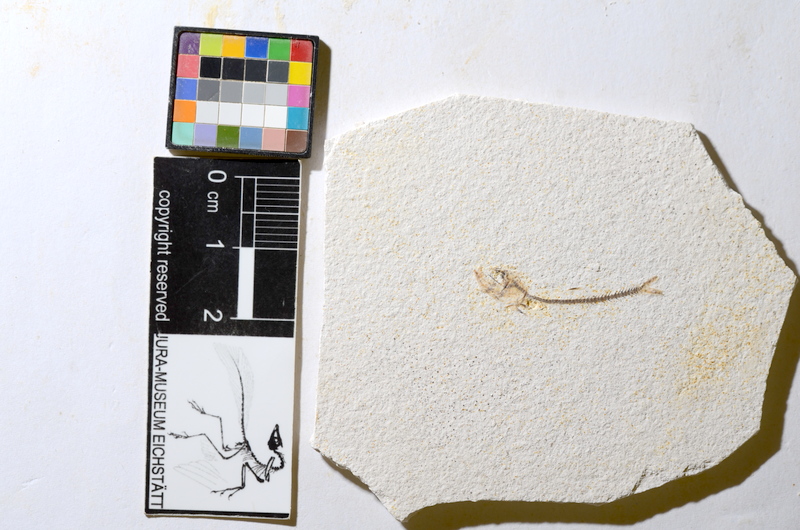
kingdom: Animalia
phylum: Chordata
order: Salmoniformes
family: Orthogonikleithridae
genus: Orthogonikleithrus
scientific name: Orthogonikleithrus hoelli
